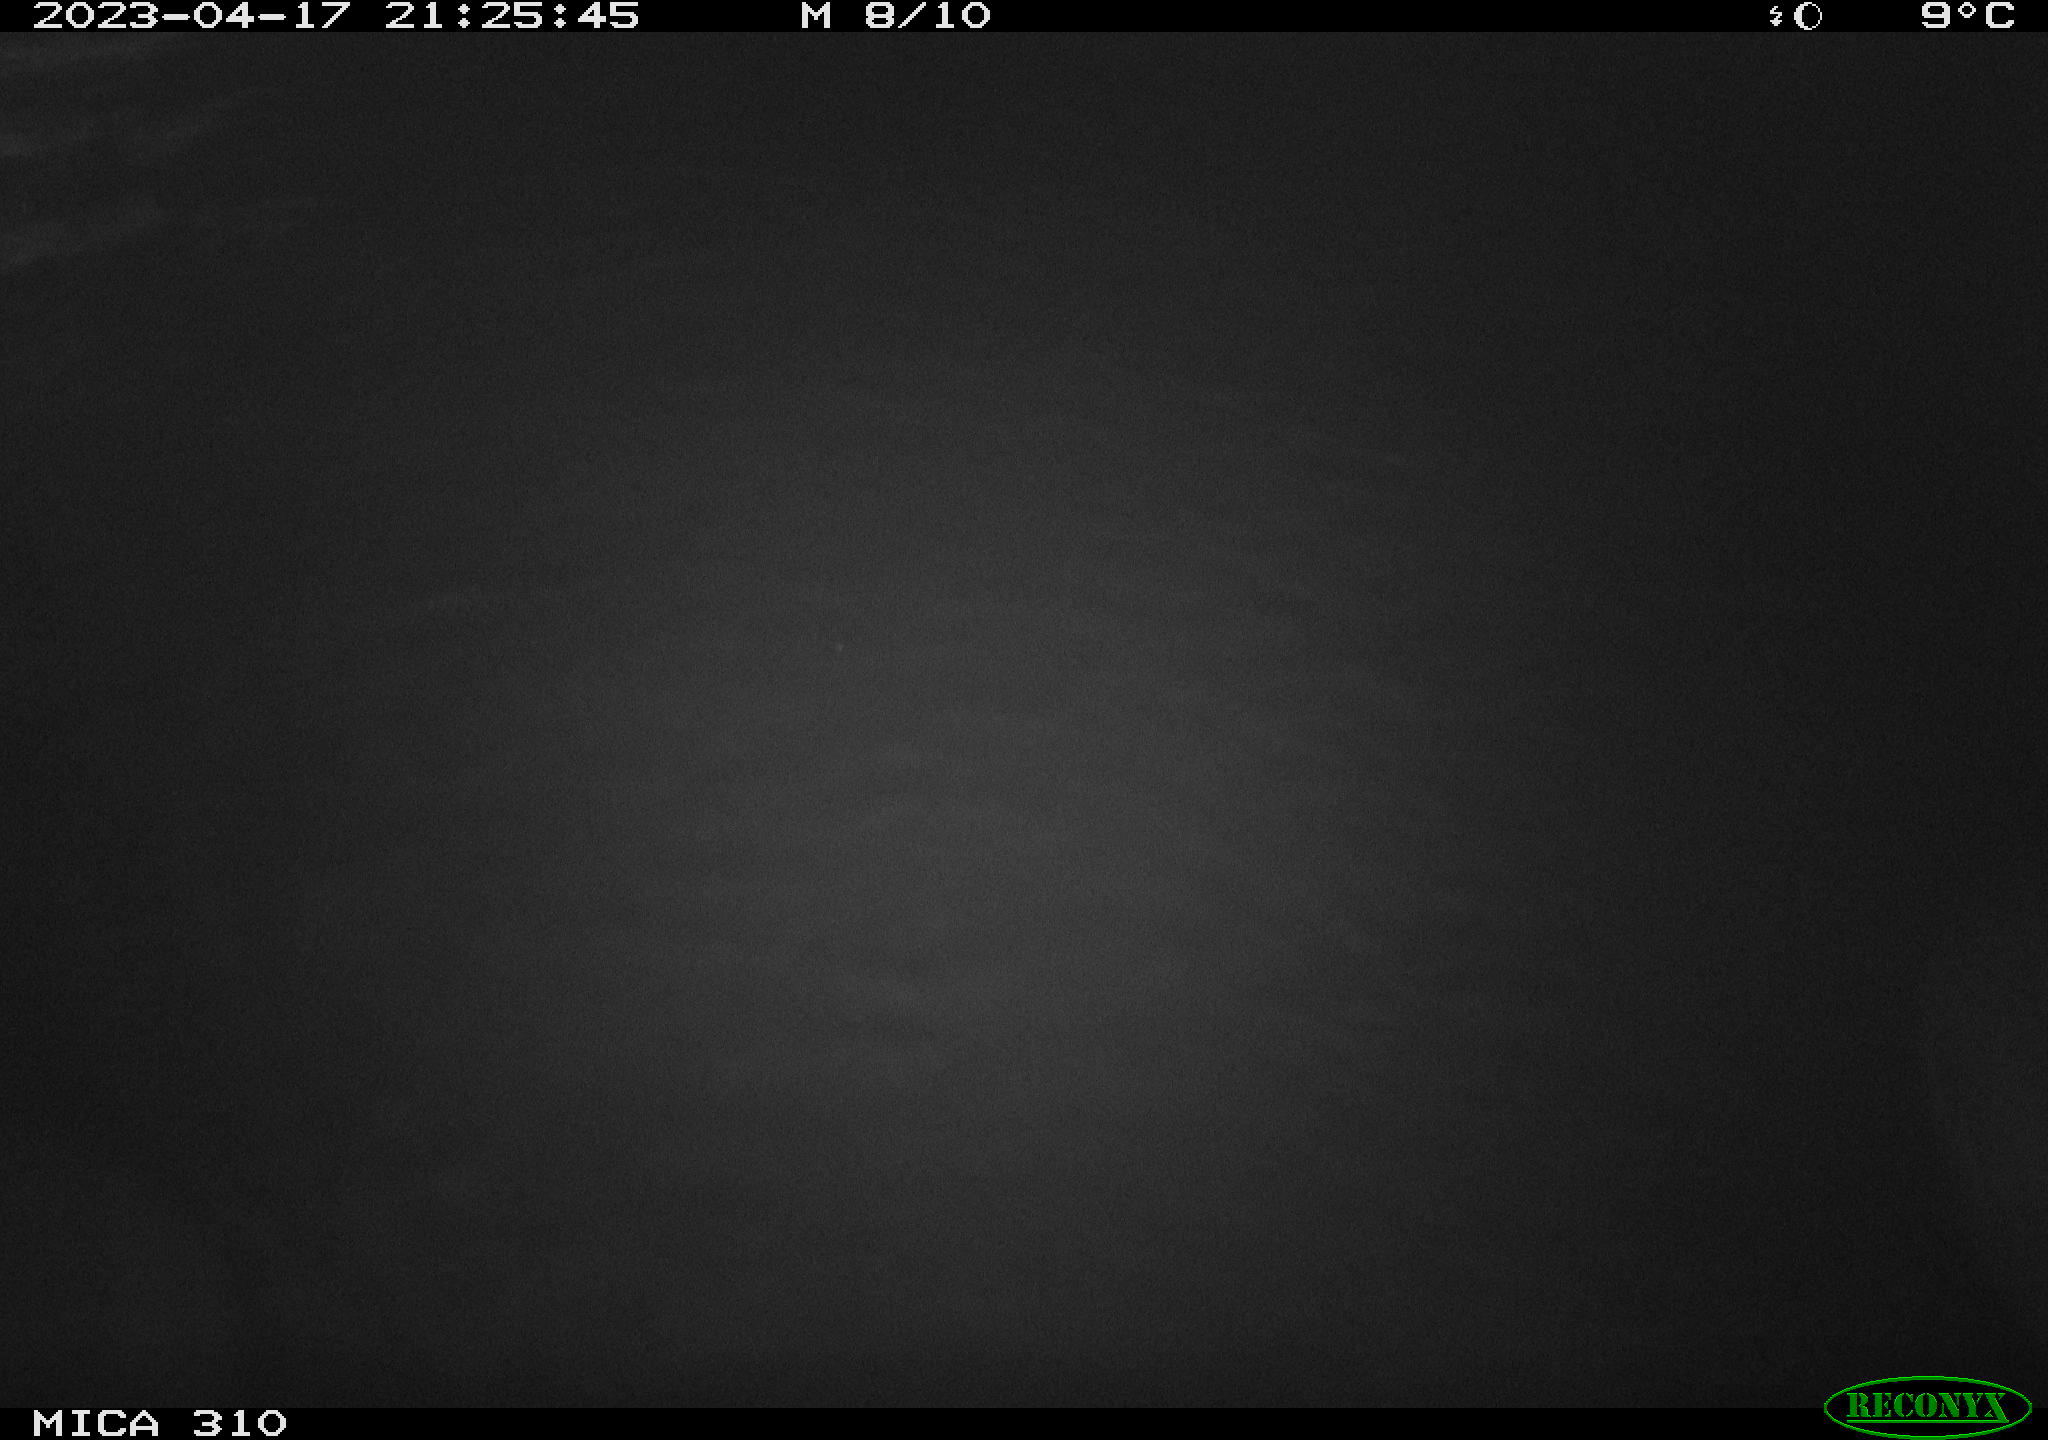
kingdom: Animalia
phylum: Chordata
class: Mammalia
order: Rodentia
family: Cricetidae
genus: Ondatra
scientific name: Ondatra zibethicus
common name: Muskrat
